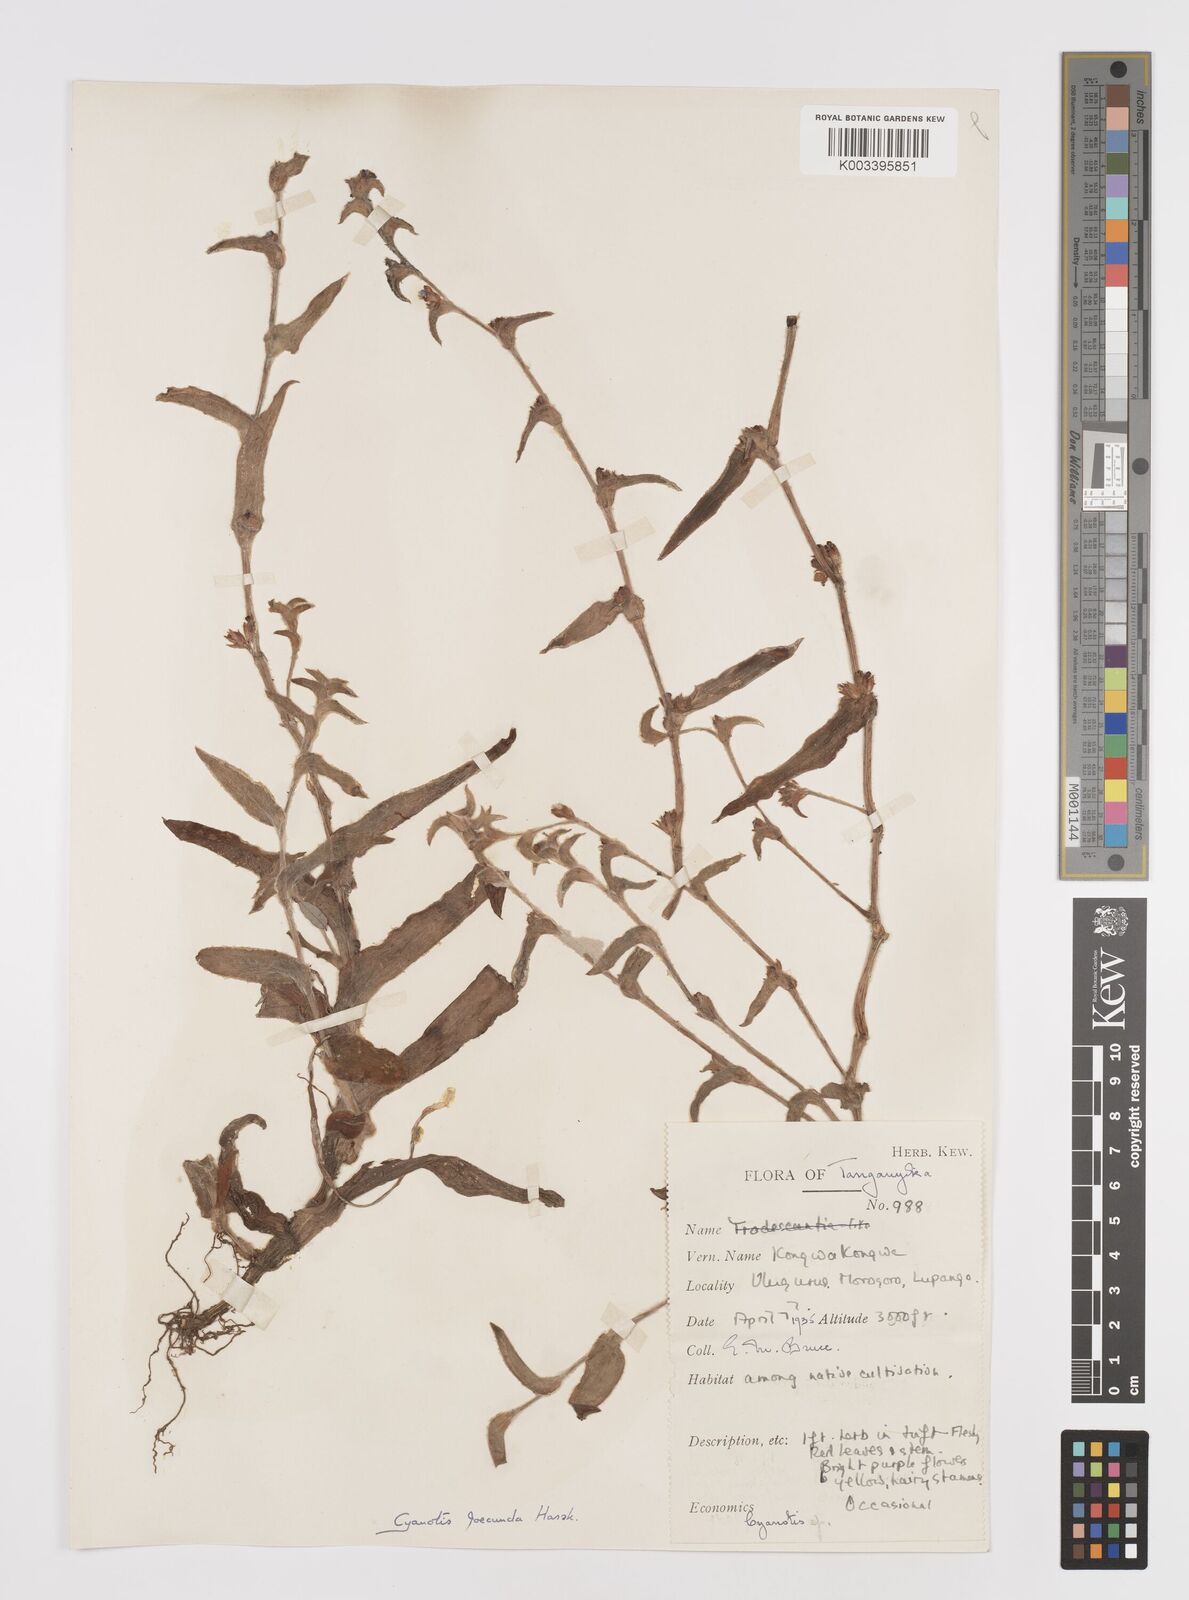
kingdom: Plantae
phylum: Tracheophyta
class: Liliopsida
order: Commelinales
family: Commelinaceae
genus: Cyanotis
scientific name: Cyanotis foecunda
